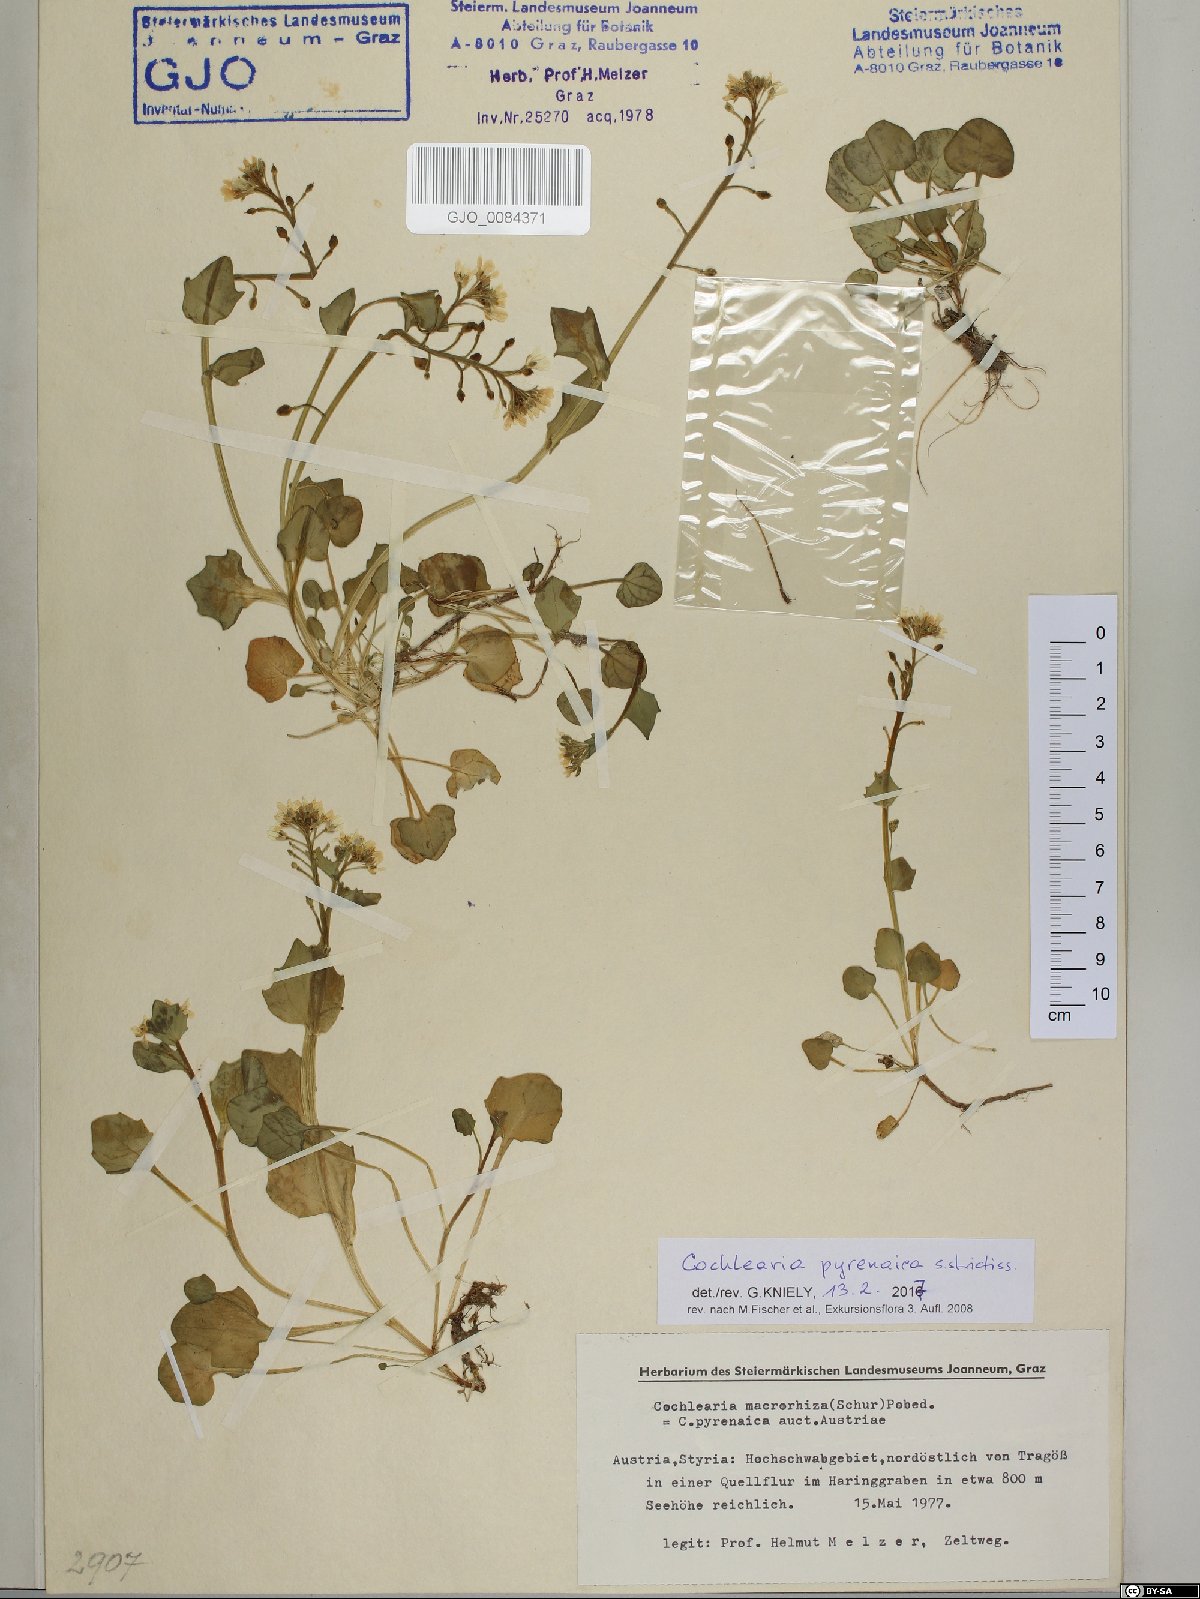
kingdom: Plantae
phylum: Tracheophyta
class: Magnoliopsida
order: Brassicales
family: Brassicaceae
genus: Cochlearia
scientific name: Cochlearia pyrenaica
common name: Upland scurvy-grass
